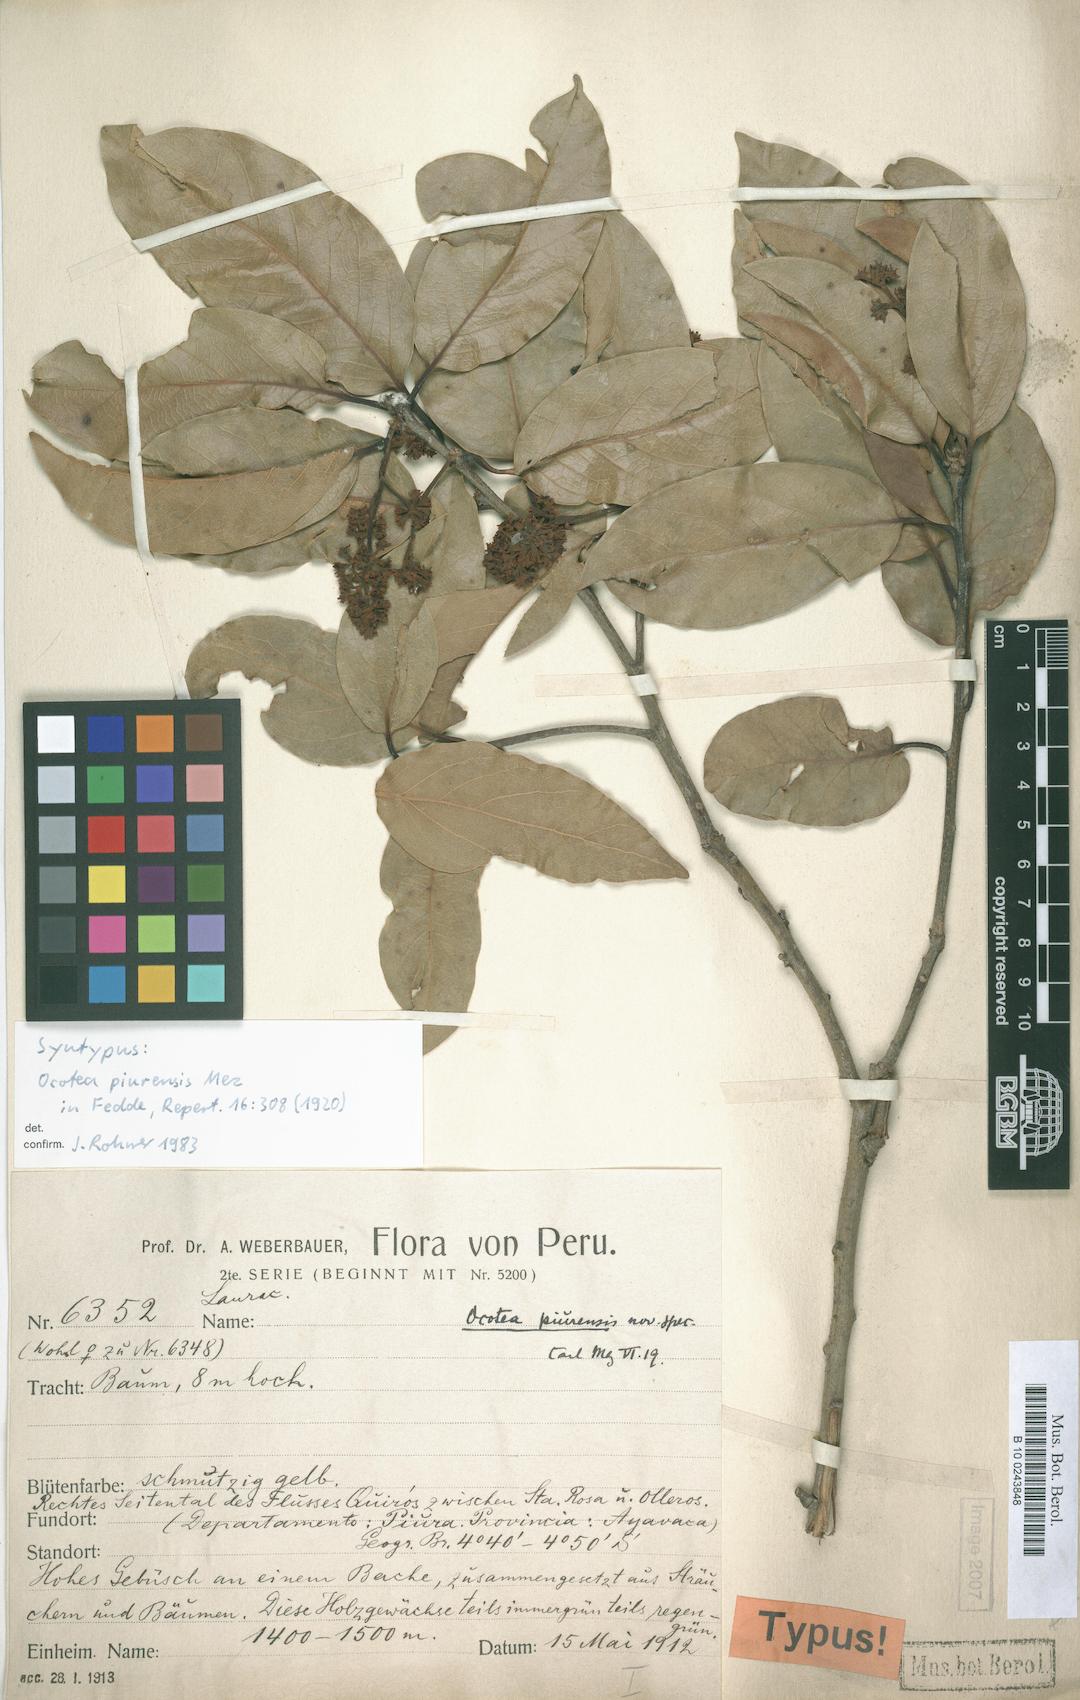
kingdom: Plantae
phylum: Tracheophyta
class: Magnoliopsida
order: Laurales
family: Lauraceae
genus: Ocotea
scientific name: Ocotea piurensis
